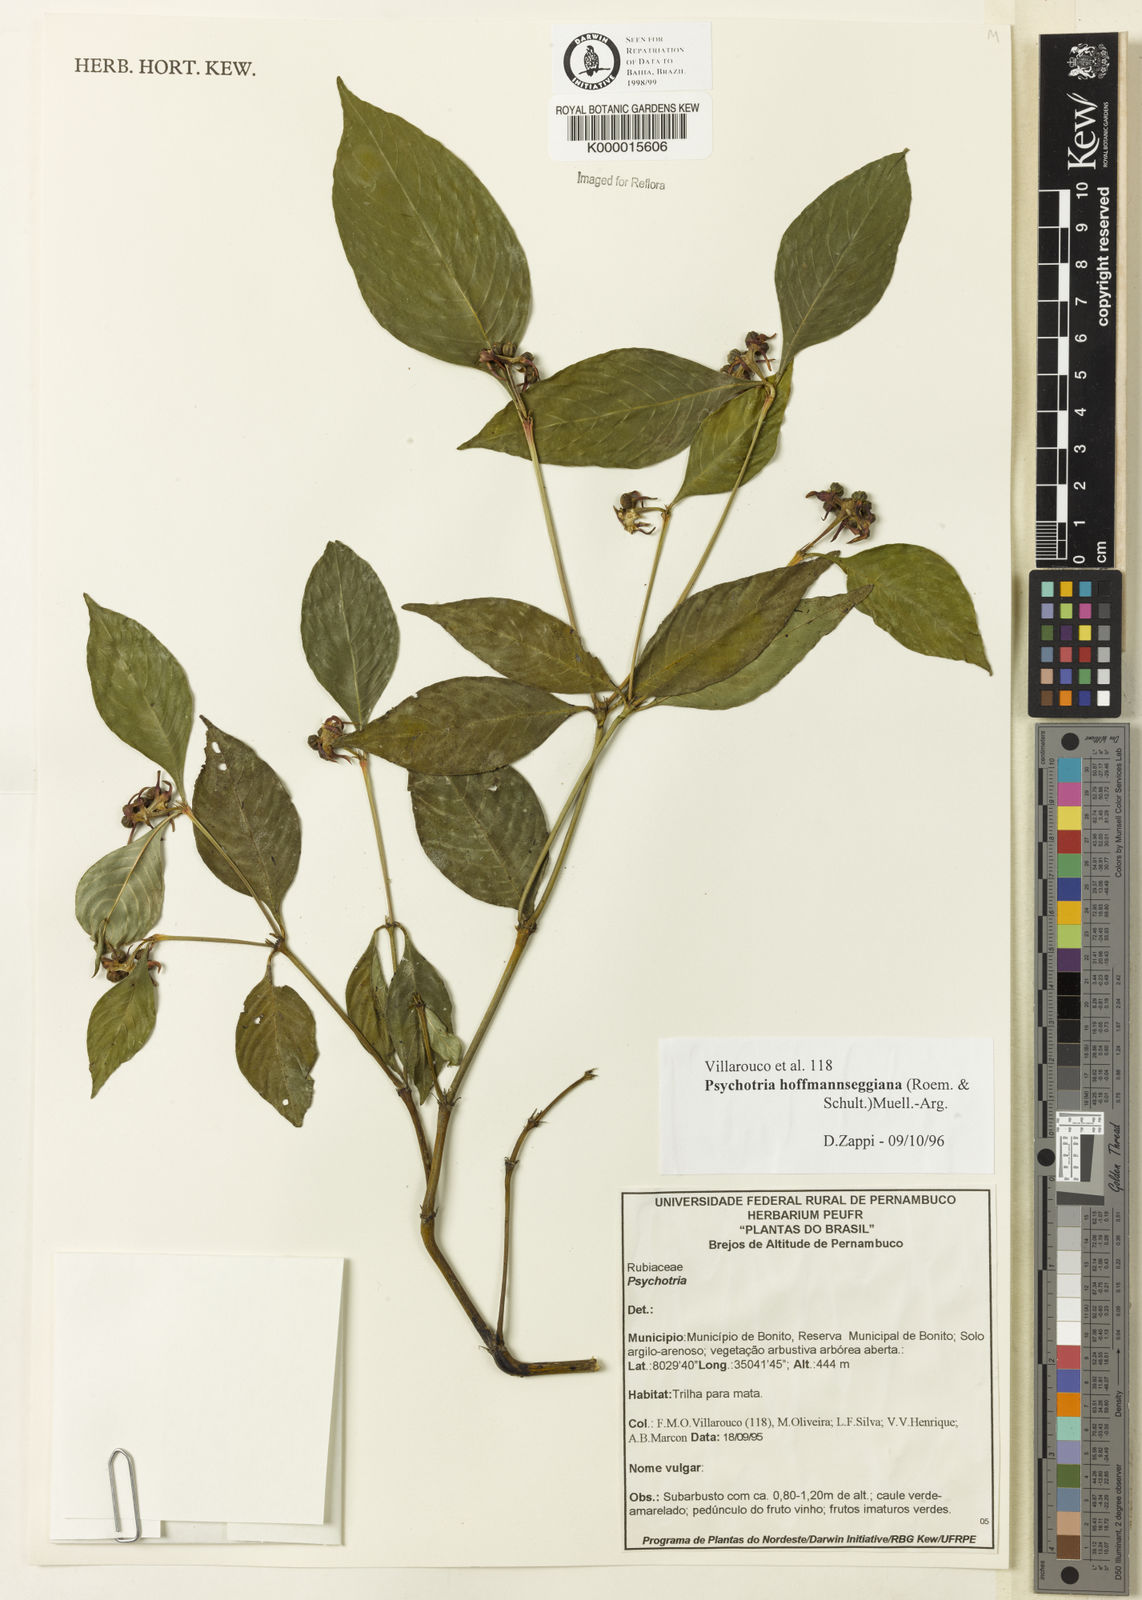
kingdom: Plantae
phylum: Tracheophyta
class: Magnoliopsida
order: Gentianales
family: Rubiaceae
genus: Psychotria
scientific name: Psychotria
